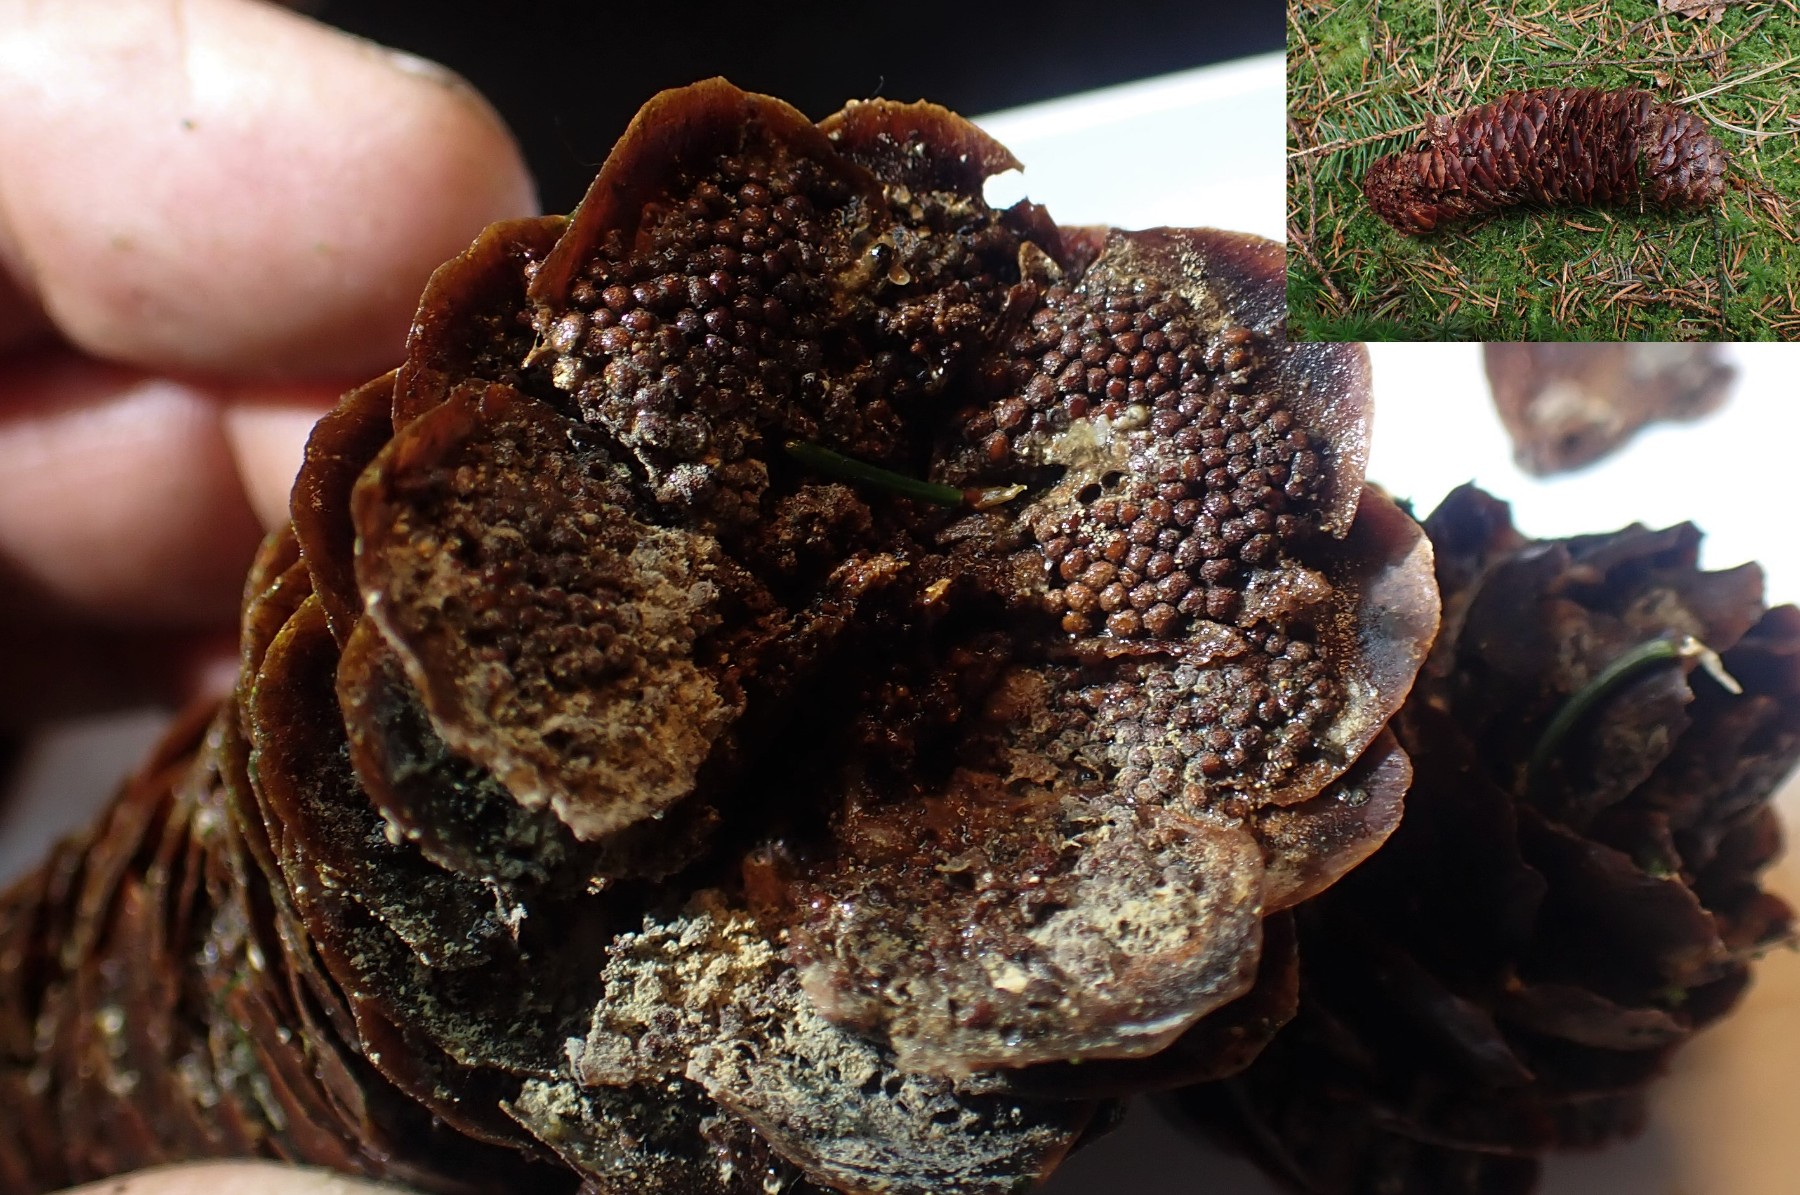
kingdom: Fungi
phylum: Basidiomycota
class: Pucciniomycetes
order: Pucciniales
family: Pucciniastraceae
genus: Thekopsora
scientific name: Thekopsora areolata
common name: grankogle-nålerust
